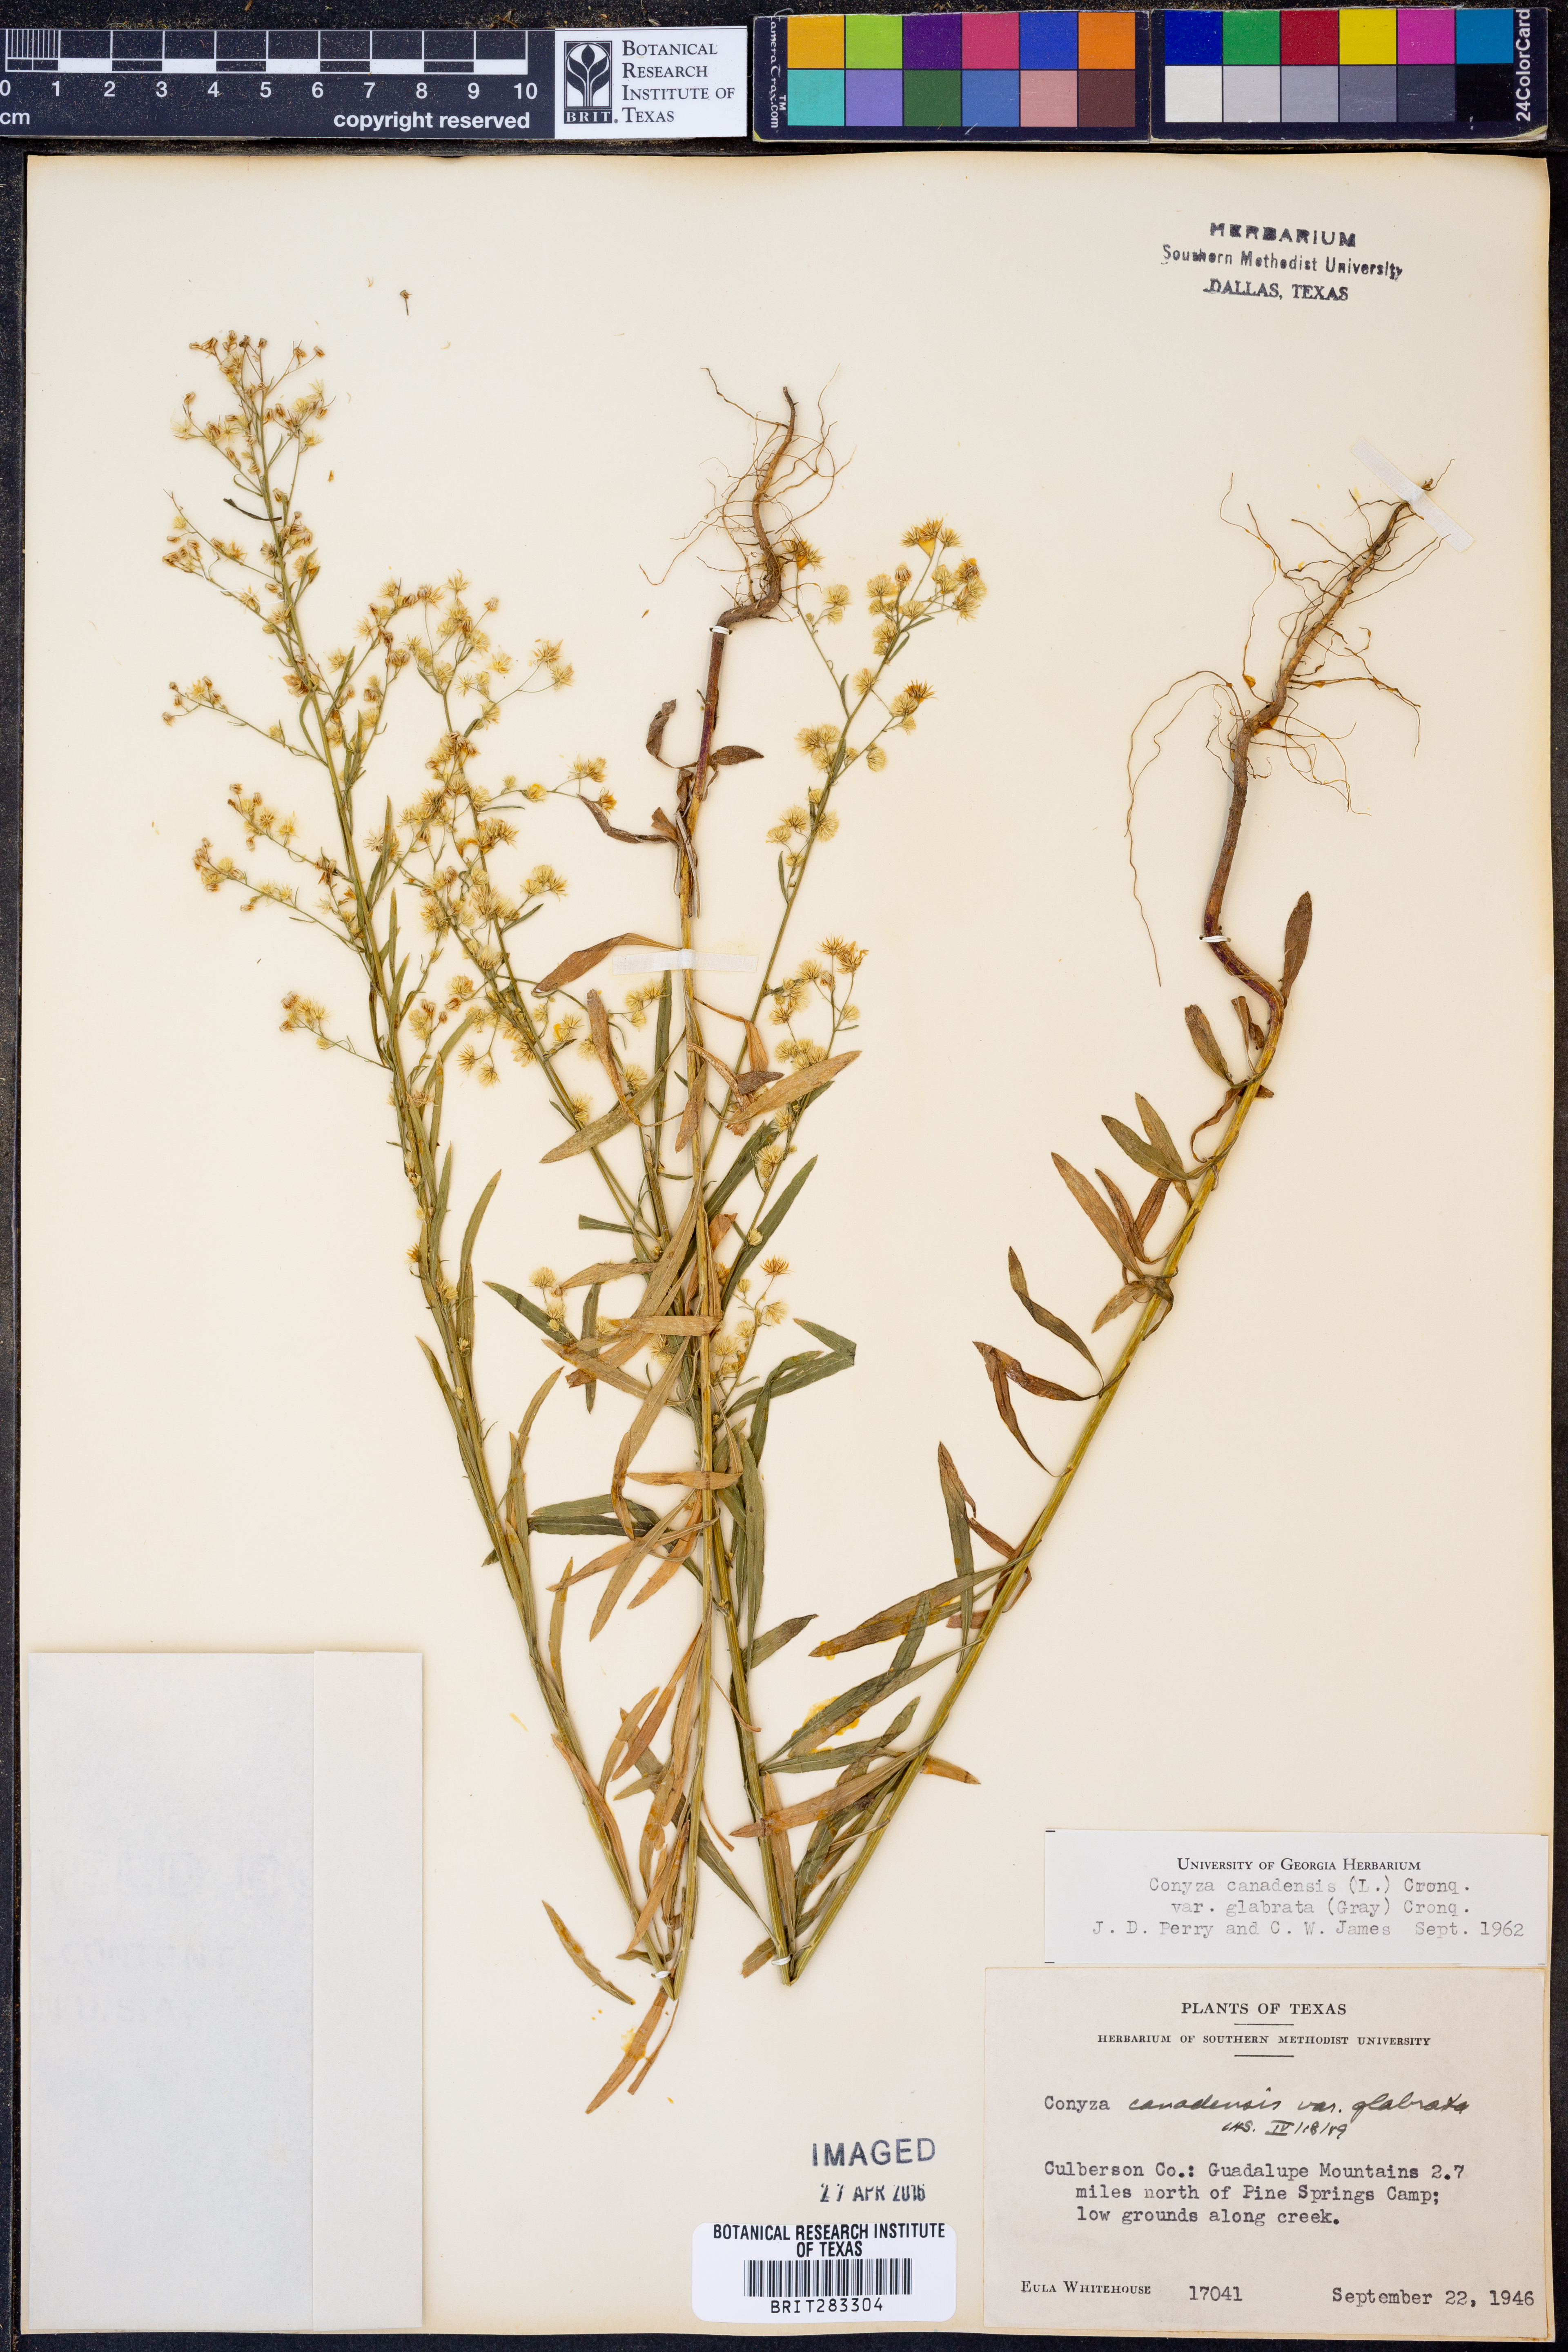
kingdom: Plantae
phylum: Tracheophyta
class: Magnoliopsida
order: Asterales
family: Asteraceae
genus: Erigeron
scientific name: Erigeron canadensis
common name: Canadian fleabane
